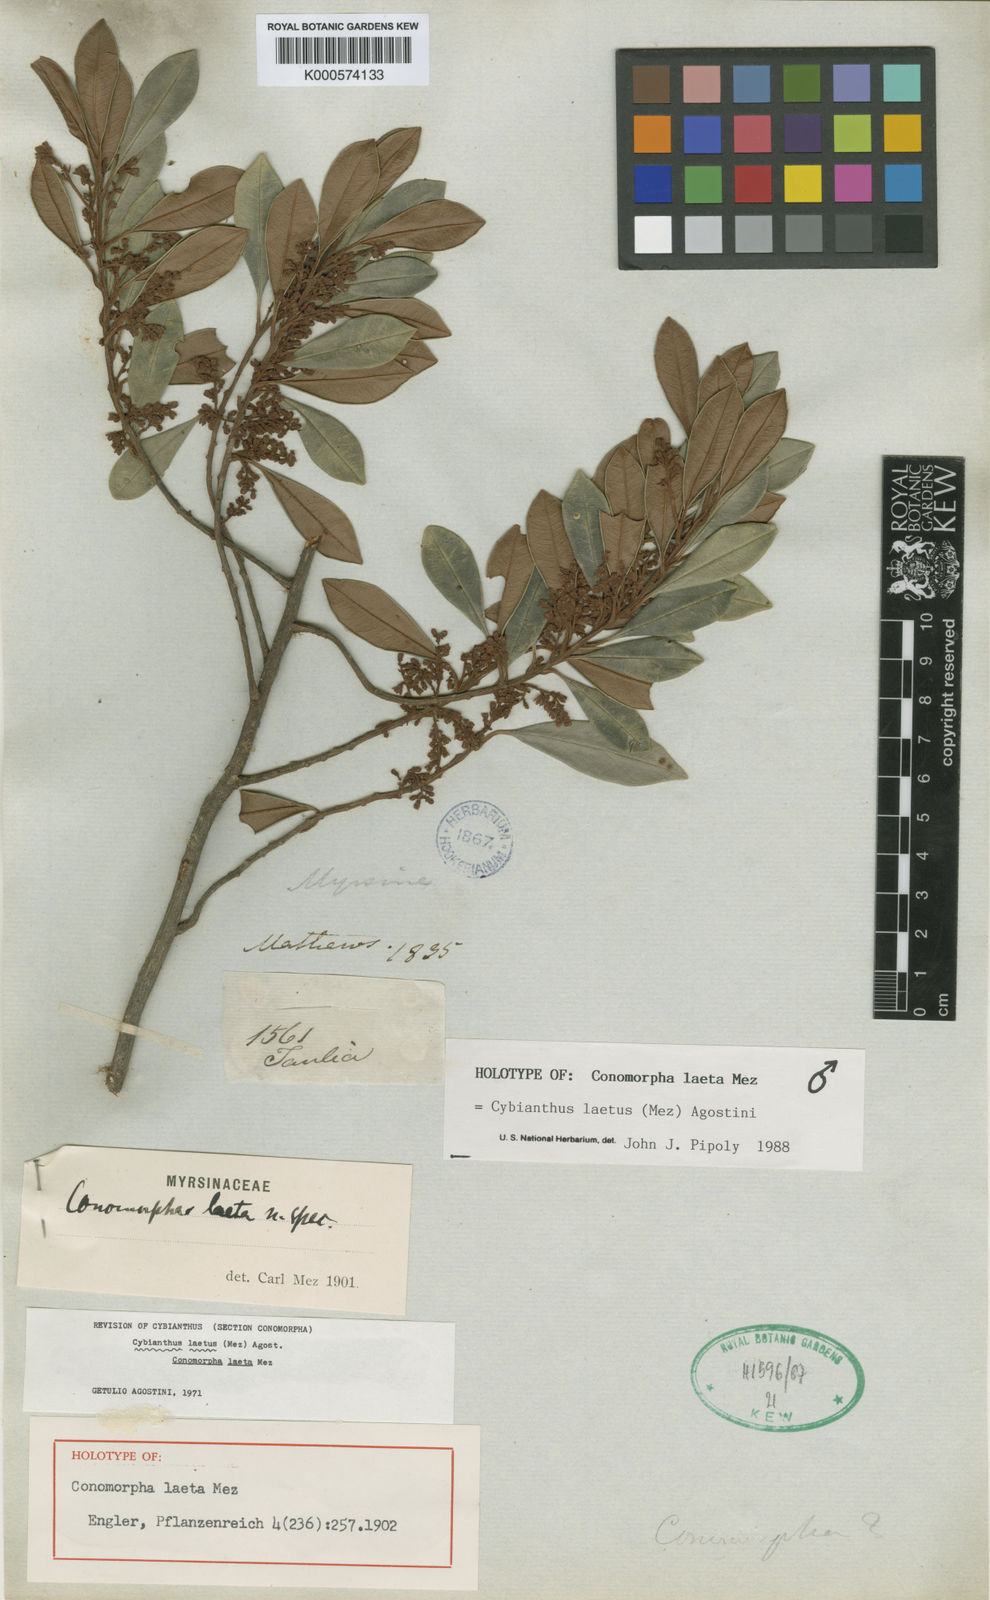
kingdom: Plantae
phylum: Tracheophyta
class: Magnoliopsida
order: Ericales
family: Primulaceae
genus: Cybianthus
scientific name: Cybianthus laetus
